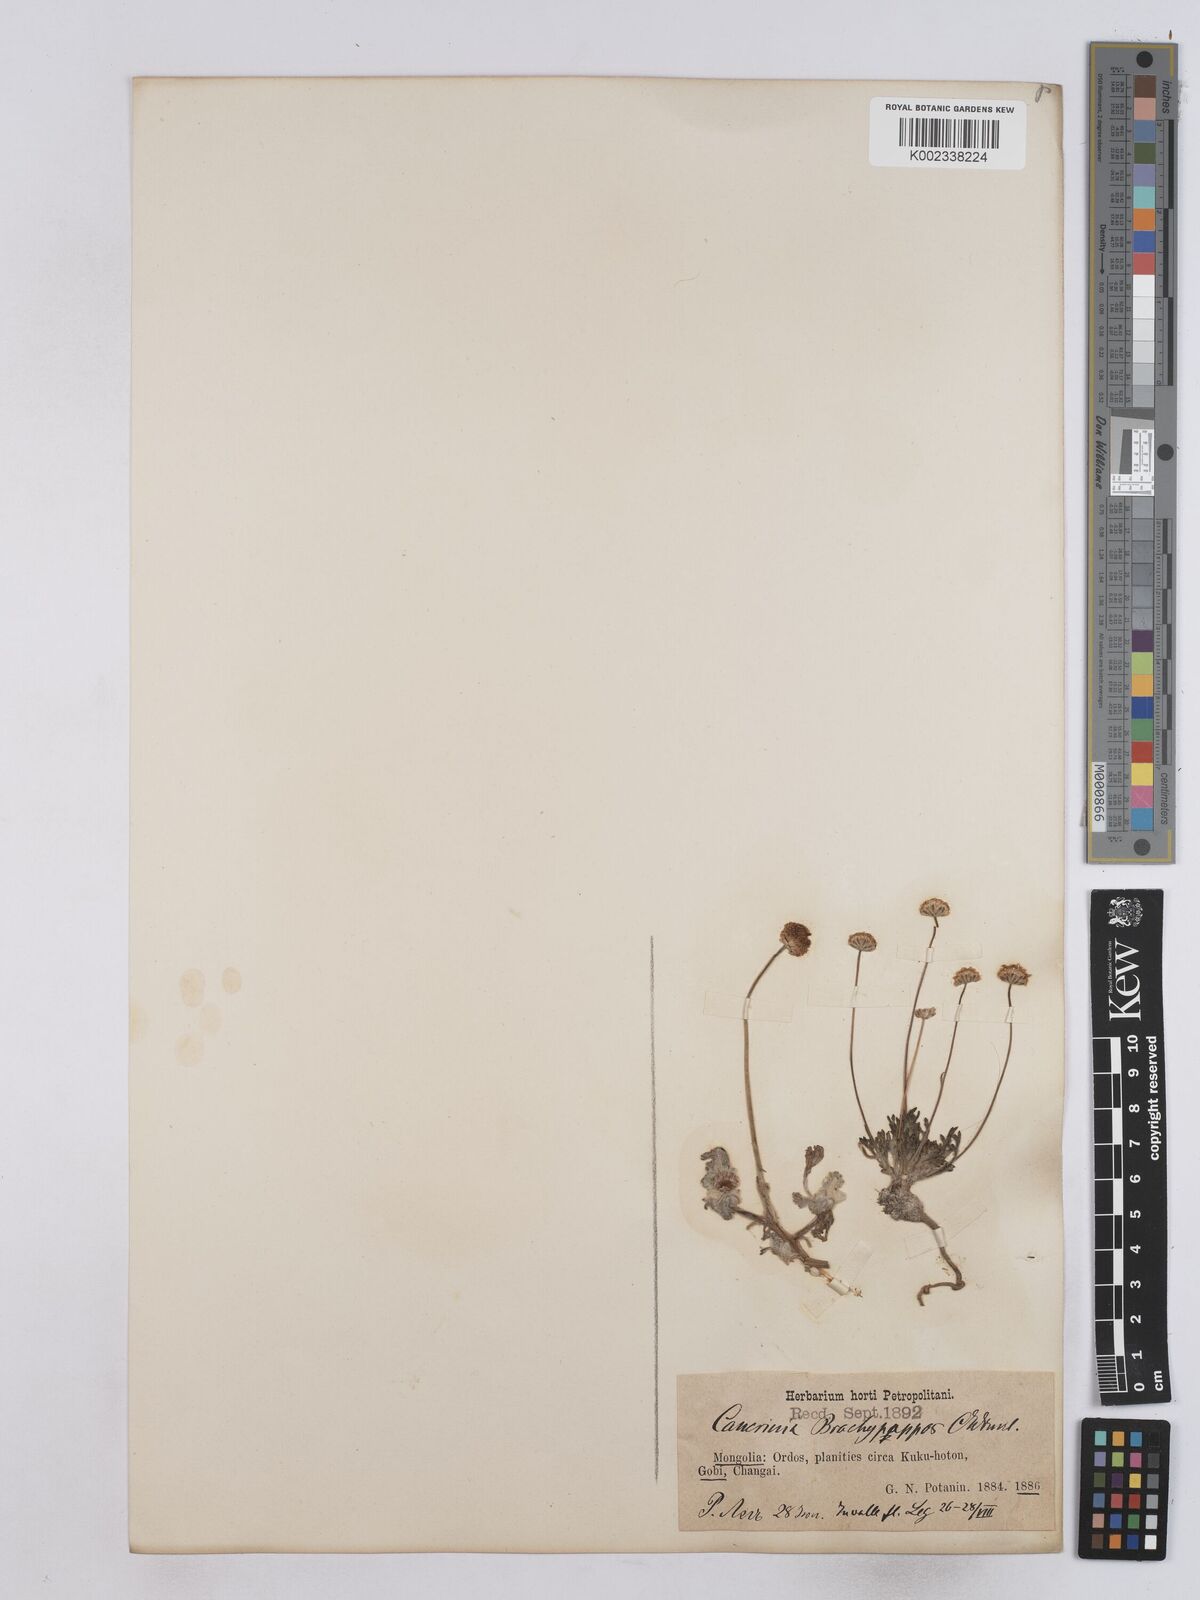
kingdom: Plantae
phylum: Tracheophyta
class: Magnoliopsida
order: Asterales
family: Asteraceae
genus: Matricaria
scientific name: Matricaria discoidea
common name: Disc mayweed
